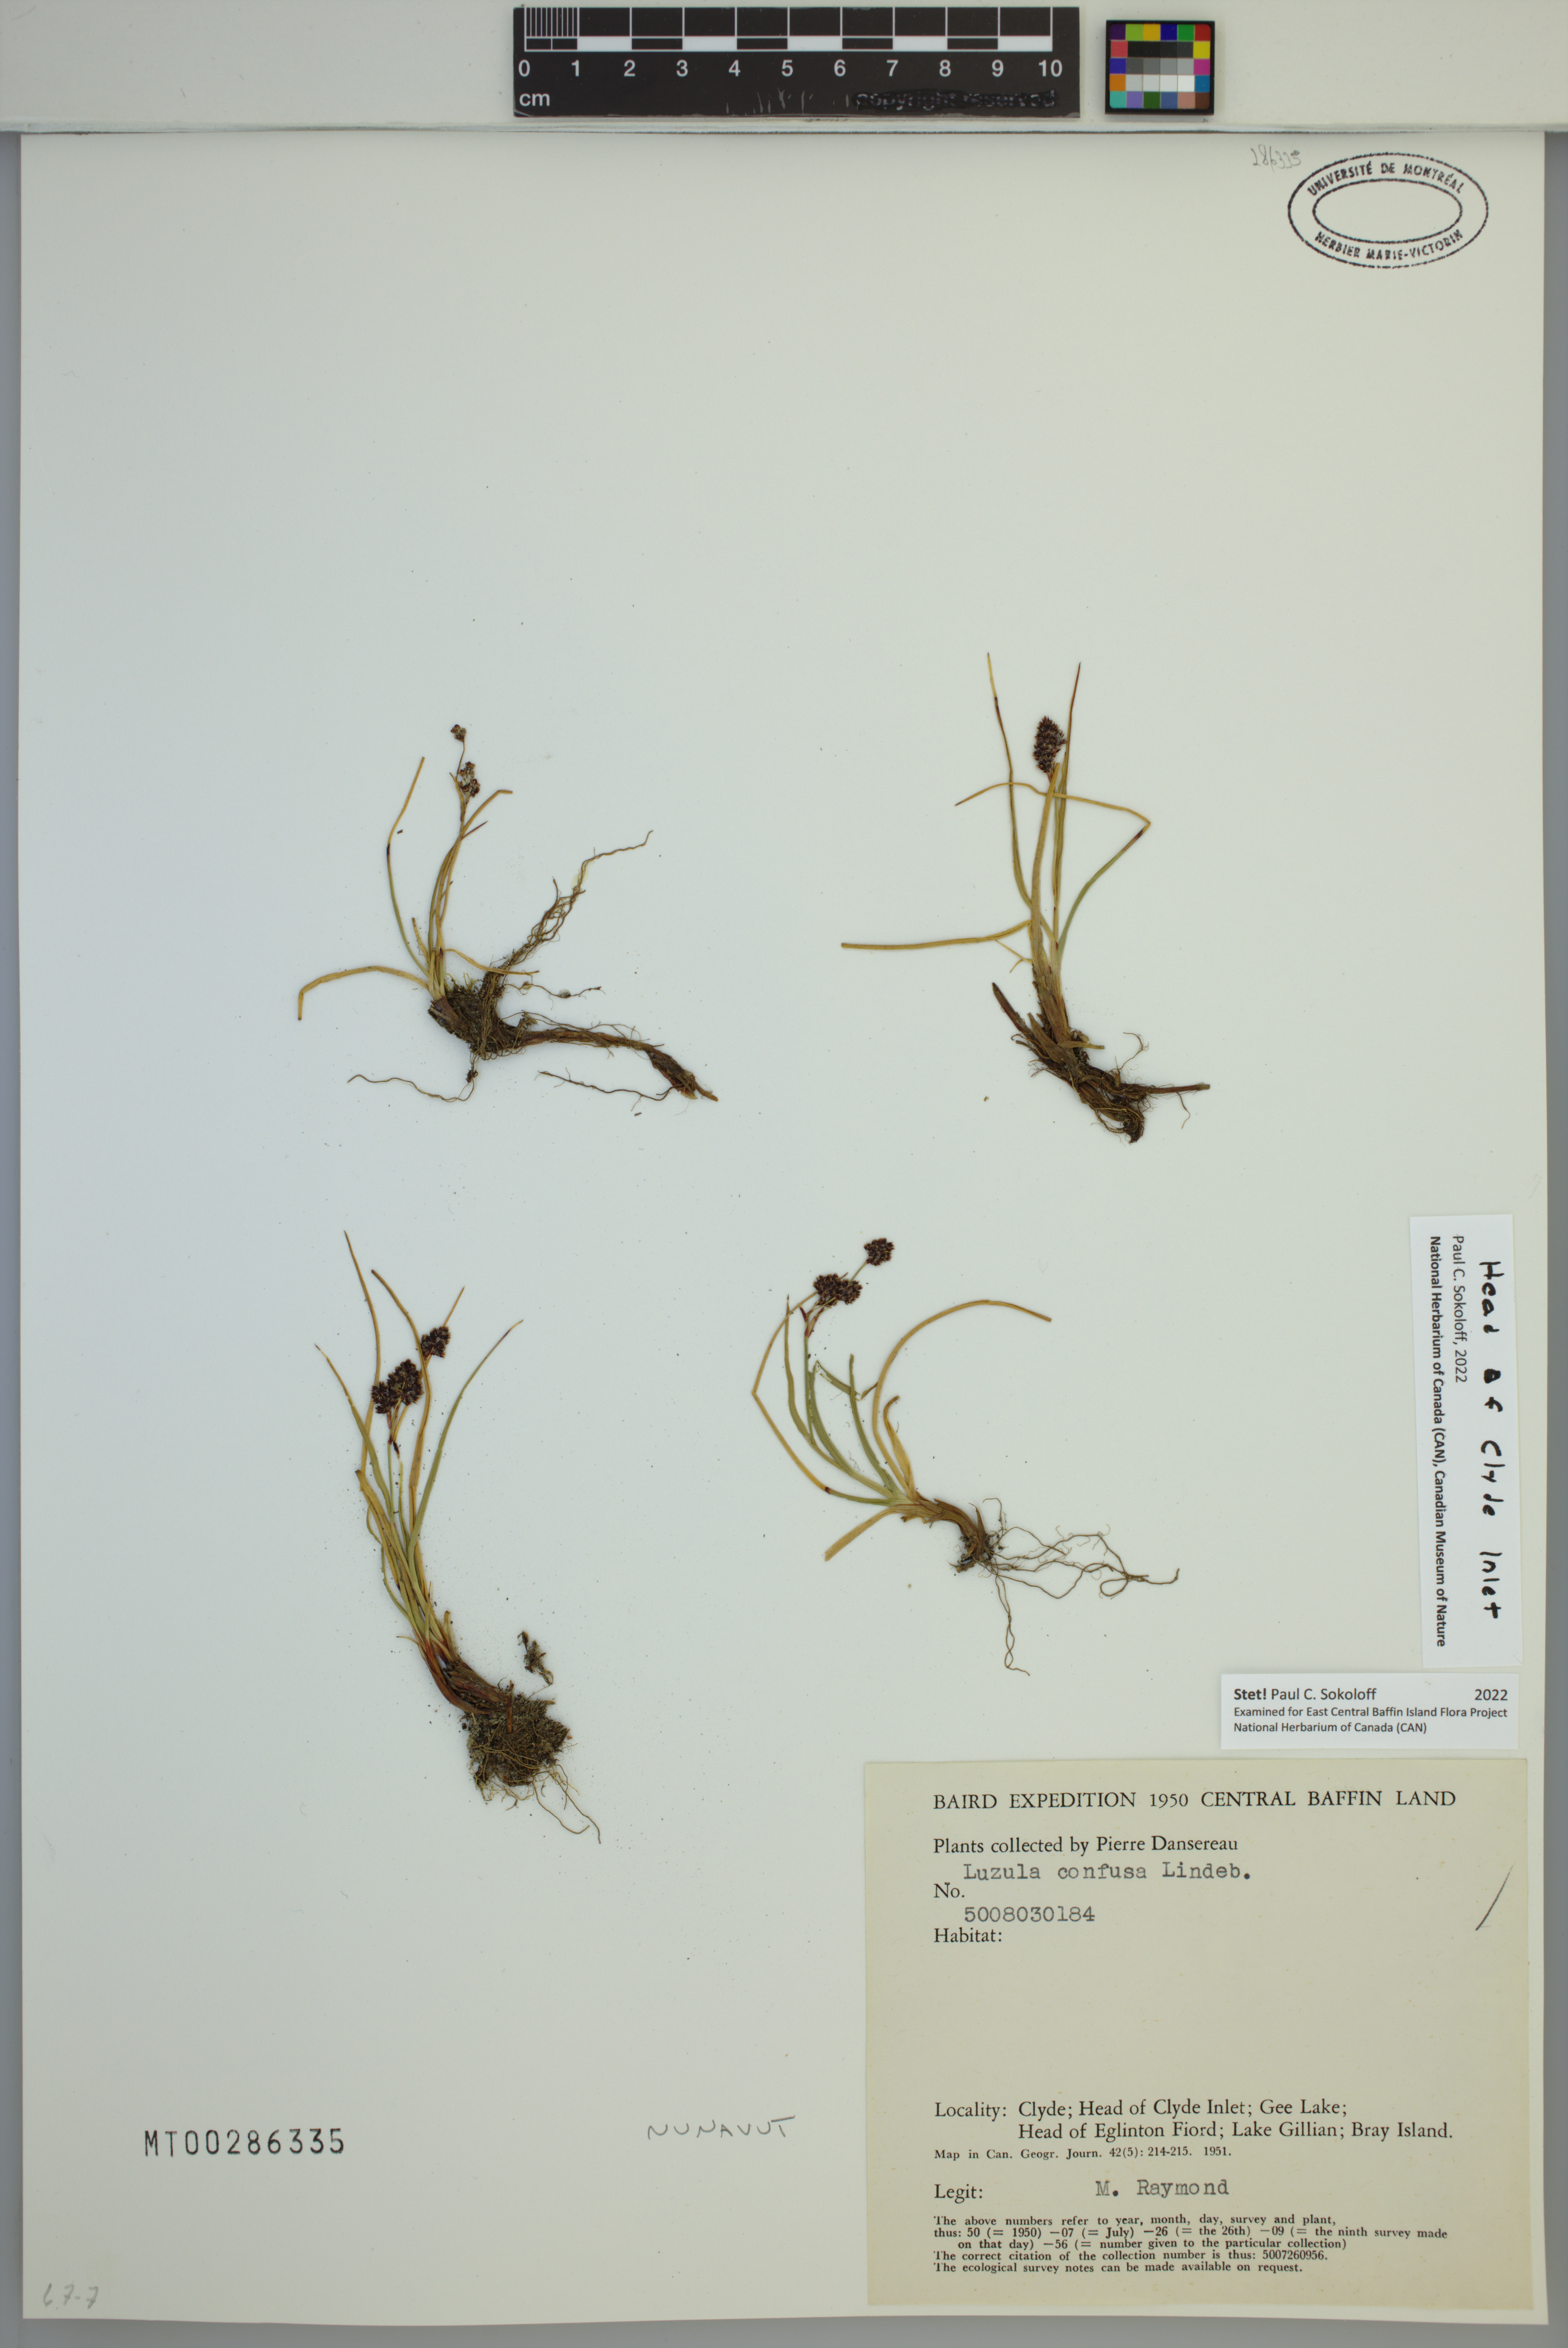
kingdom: Plantae
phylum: Tracheophyta
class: Liliopsida
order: Poales
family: Juncaceae
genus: Luzula
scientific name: Luzula confusa
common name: Northern wood rush
